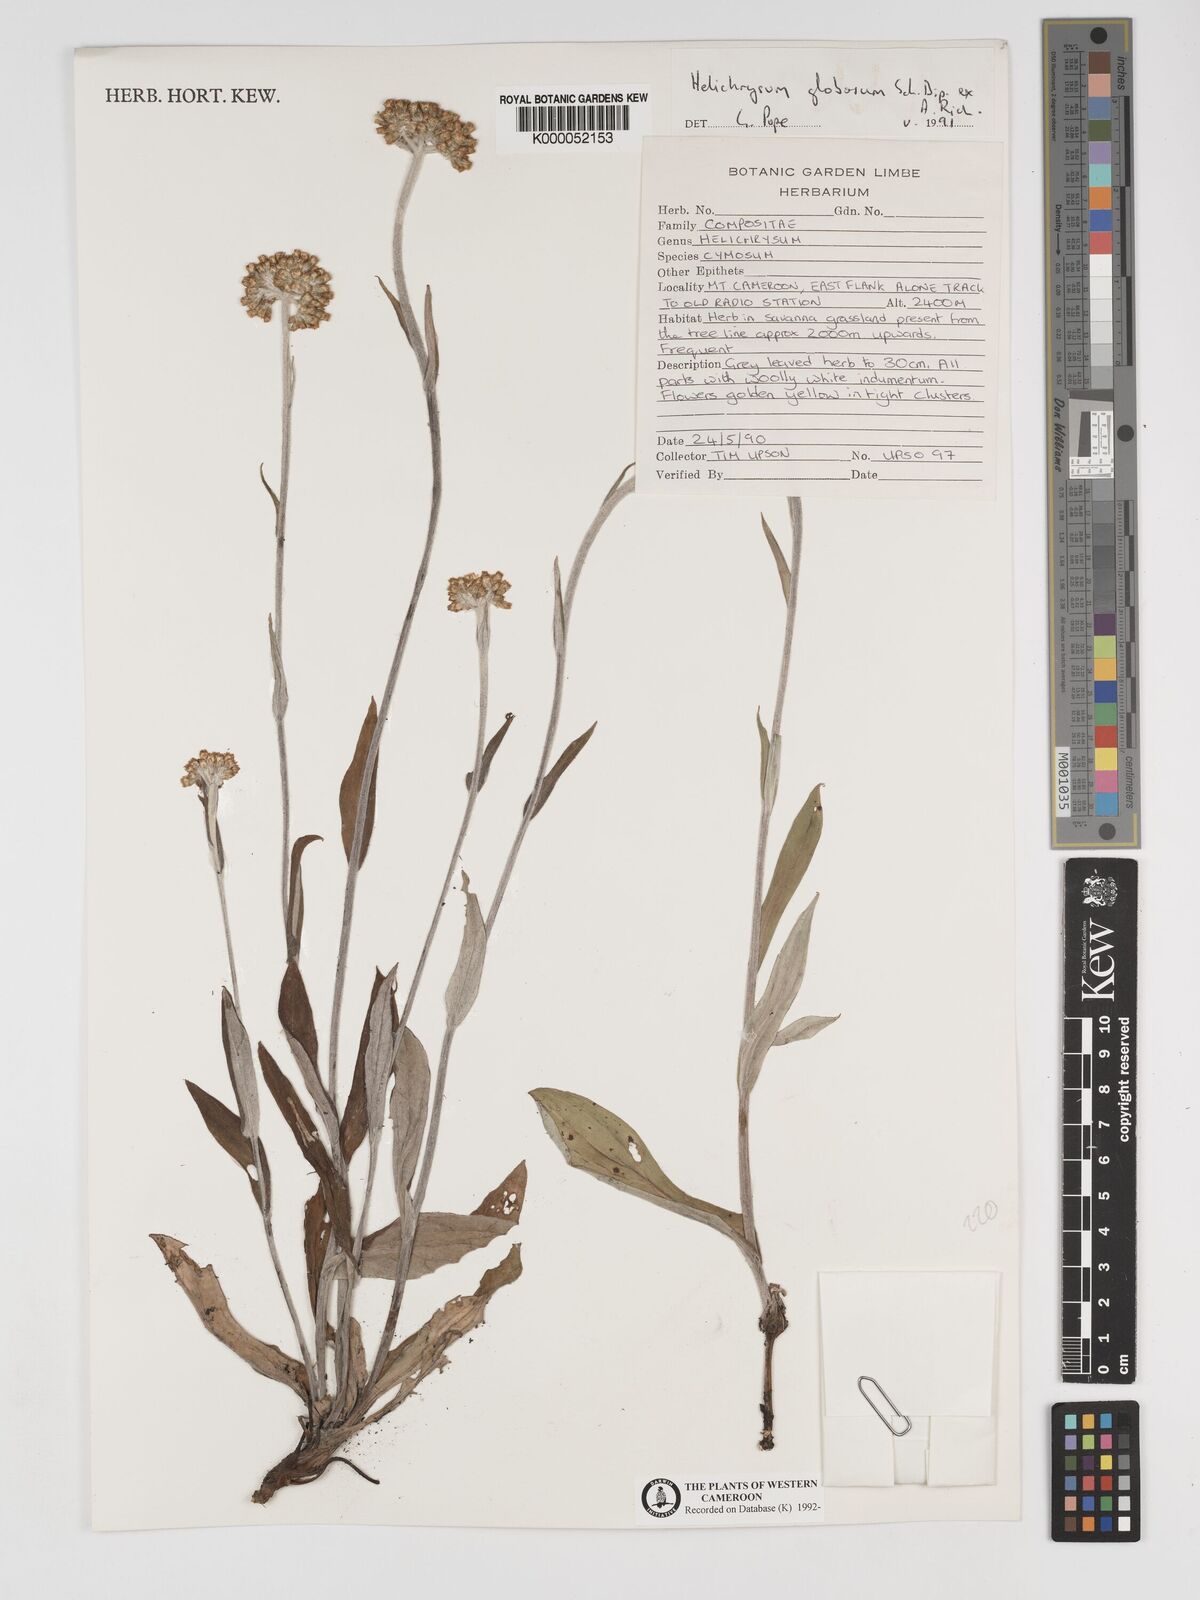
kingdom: Plantae
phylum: Tracheophyta
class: Magnoliopsida
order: Asterales
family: Asteraceae
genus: Helichrysum
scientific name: Helichrysum
